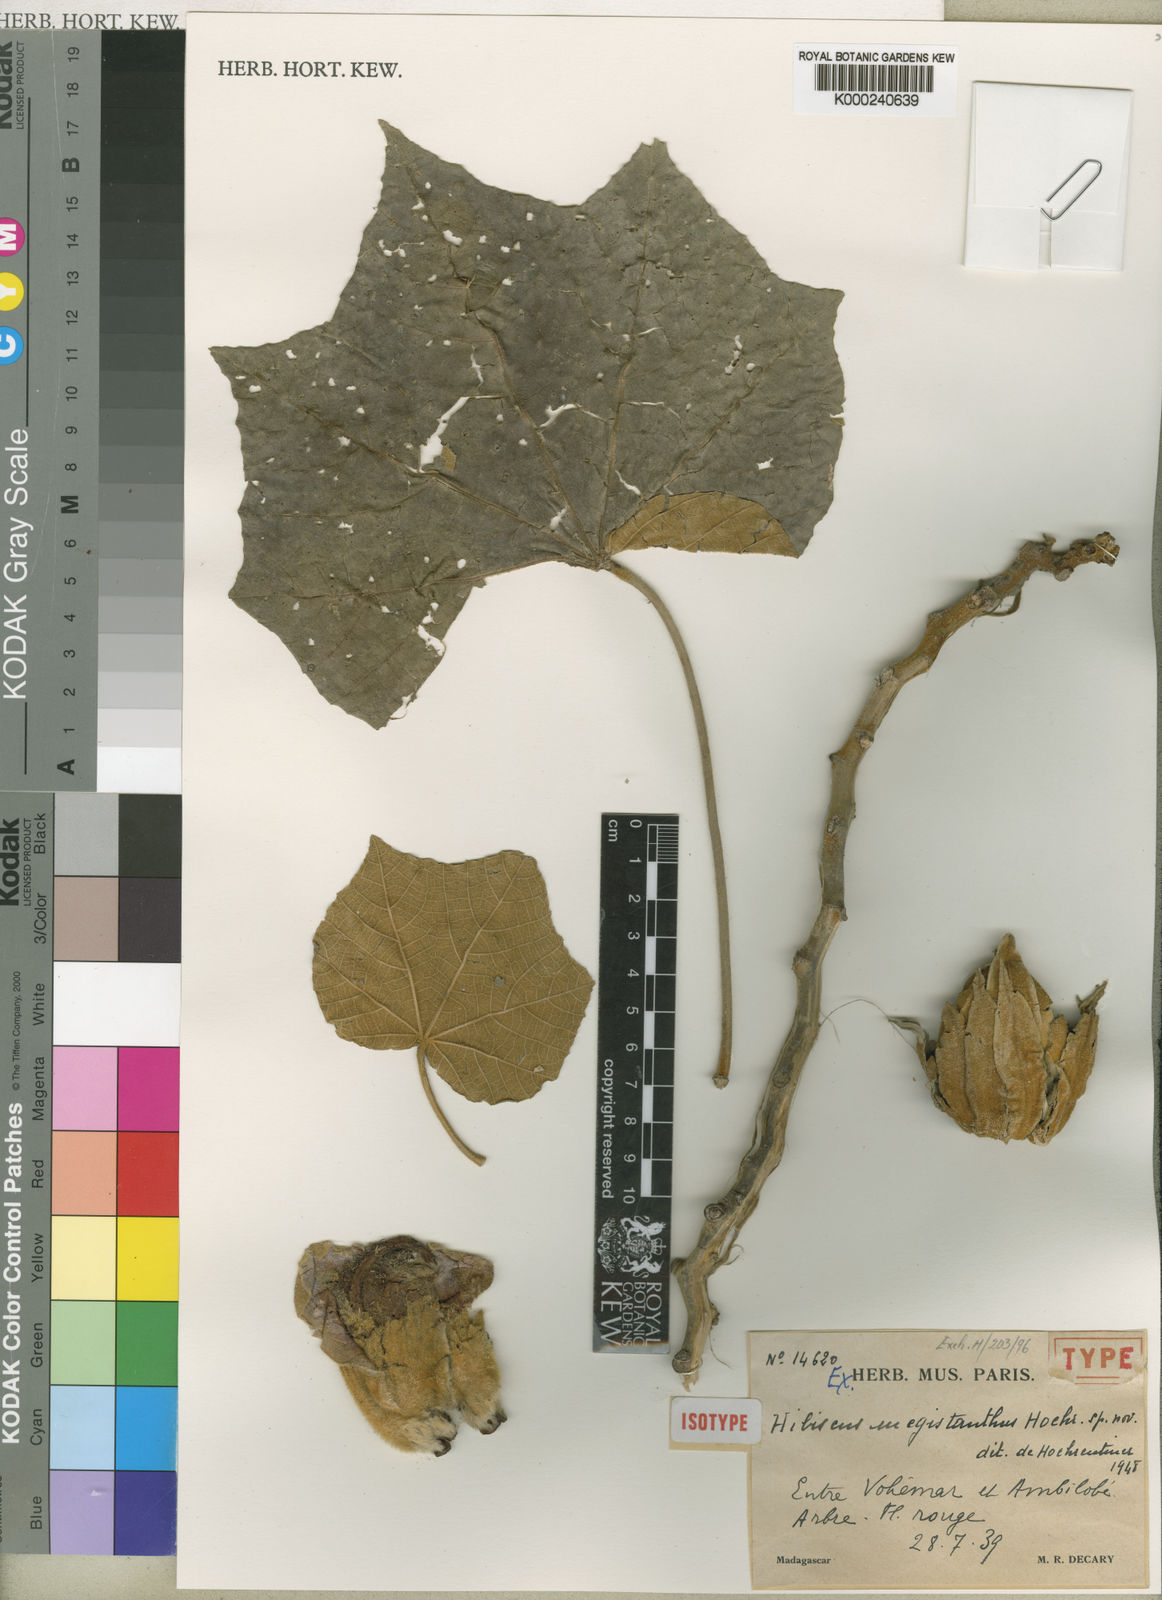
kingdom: Plantae
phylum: Tracheophyta
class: Magnoliopsida
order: Malvales
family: Malvaceae
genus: Hibiscus
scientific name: Hibiscus megistanthus
